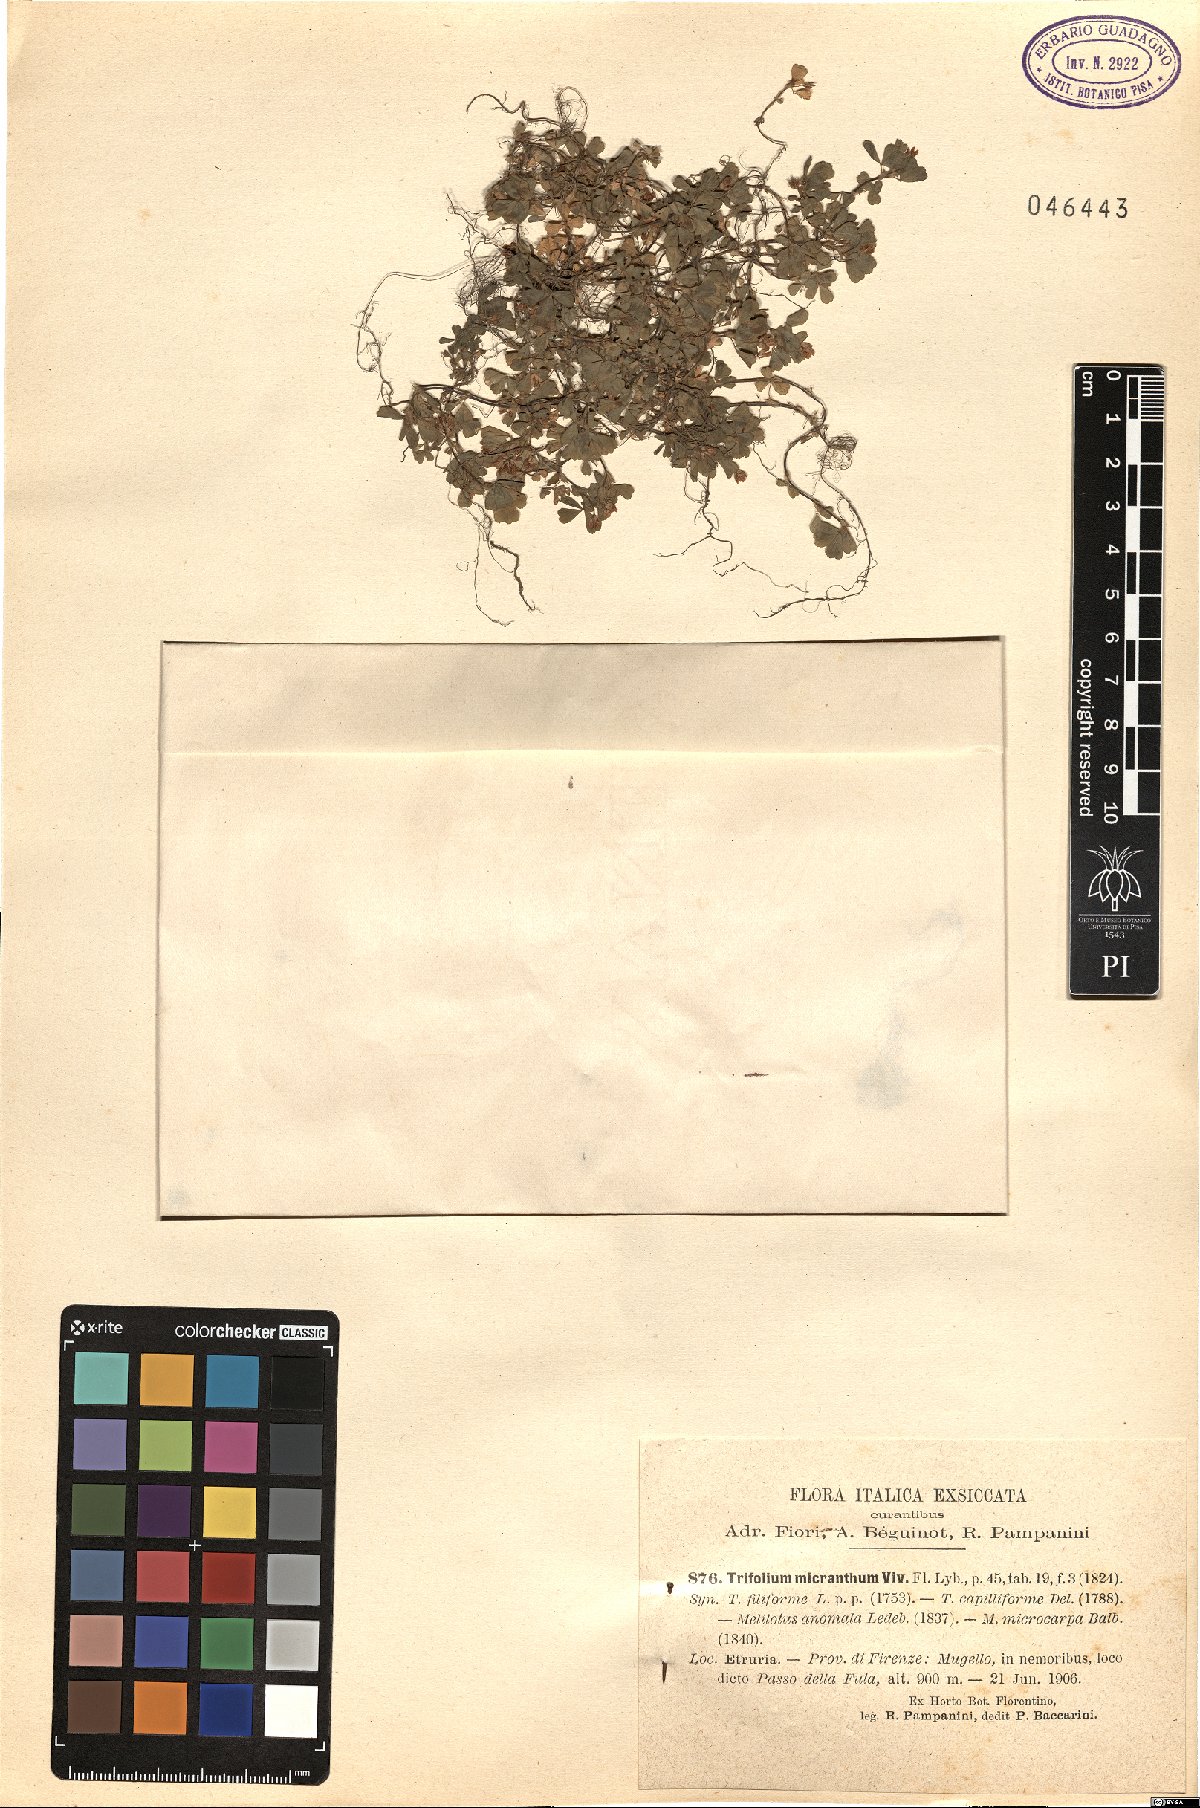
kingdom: Plantae
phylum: Tracheophyta
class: Magnoliopsida
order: Fabales
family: Fabaceae
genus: Trifolium
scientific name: Trifolium micranthum
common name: Slender trefoil
